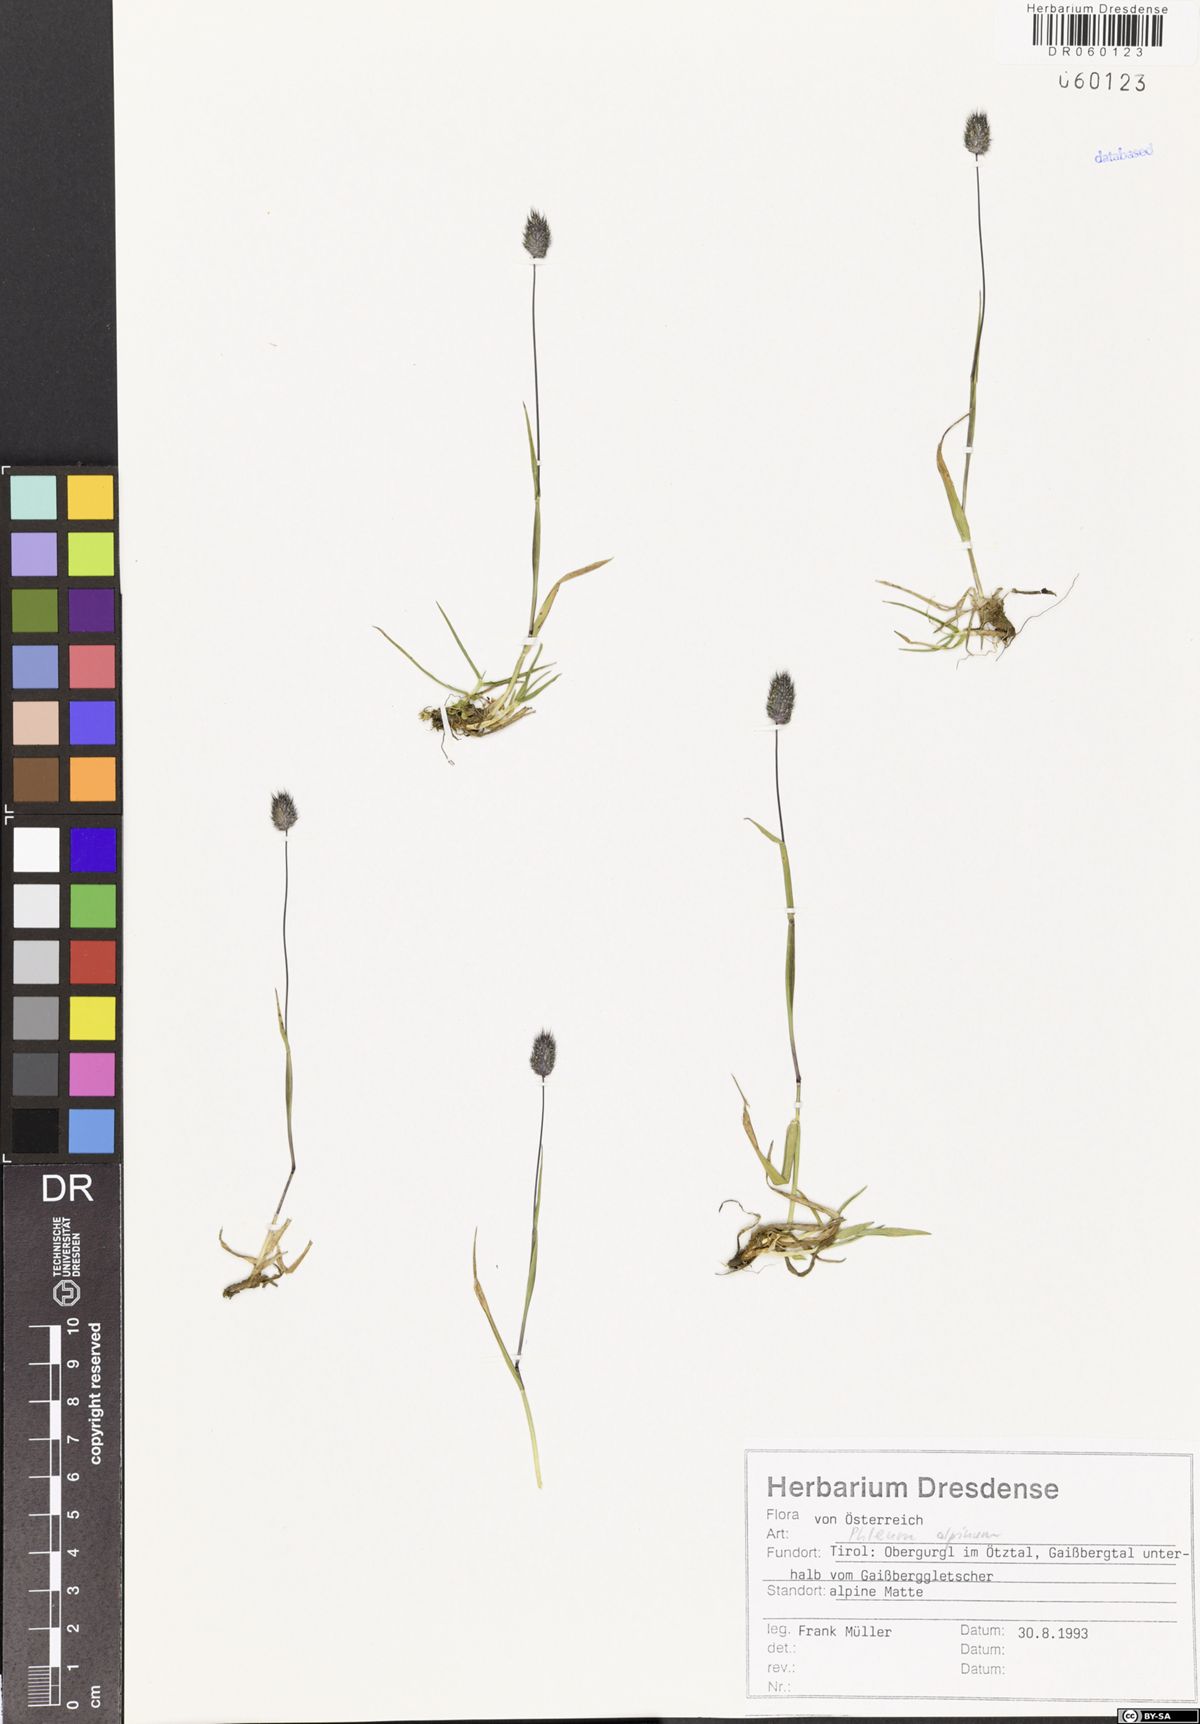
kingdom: Plantae
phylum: Tracheophyta
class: Liliopsida
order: Poales
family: Poaceae
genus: Phleum
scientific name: Phleum alpinum
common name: Alpine cat's-tail
